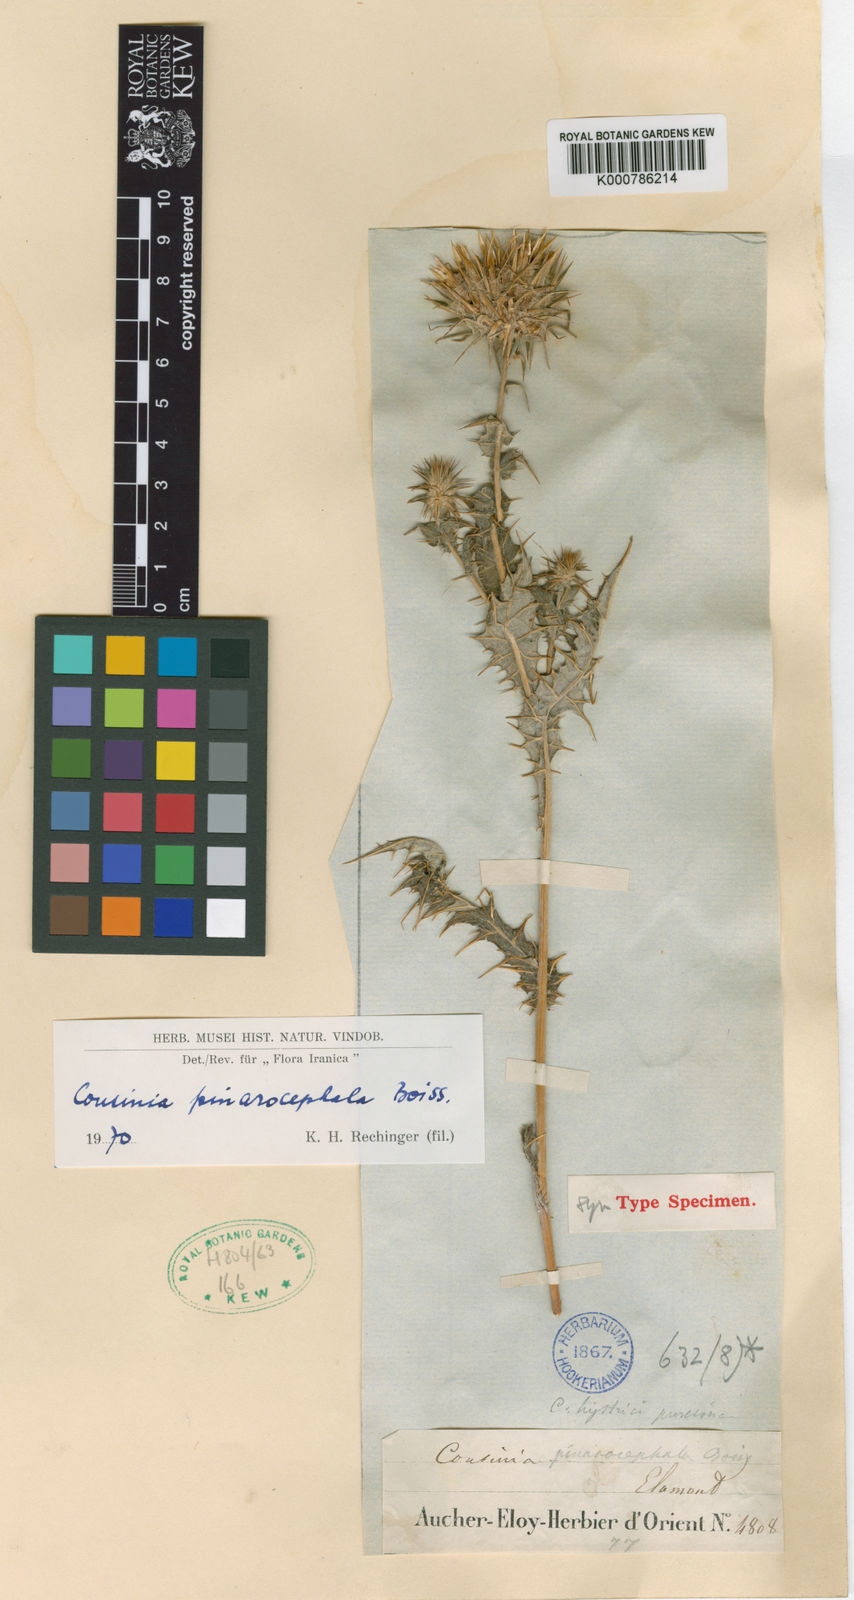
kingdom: Plantae
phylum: Tracheophyta
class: Magnoliopsida
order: Asterales
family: Asteraceae
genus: Cousinia
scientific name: Cousinia pinarocephala
